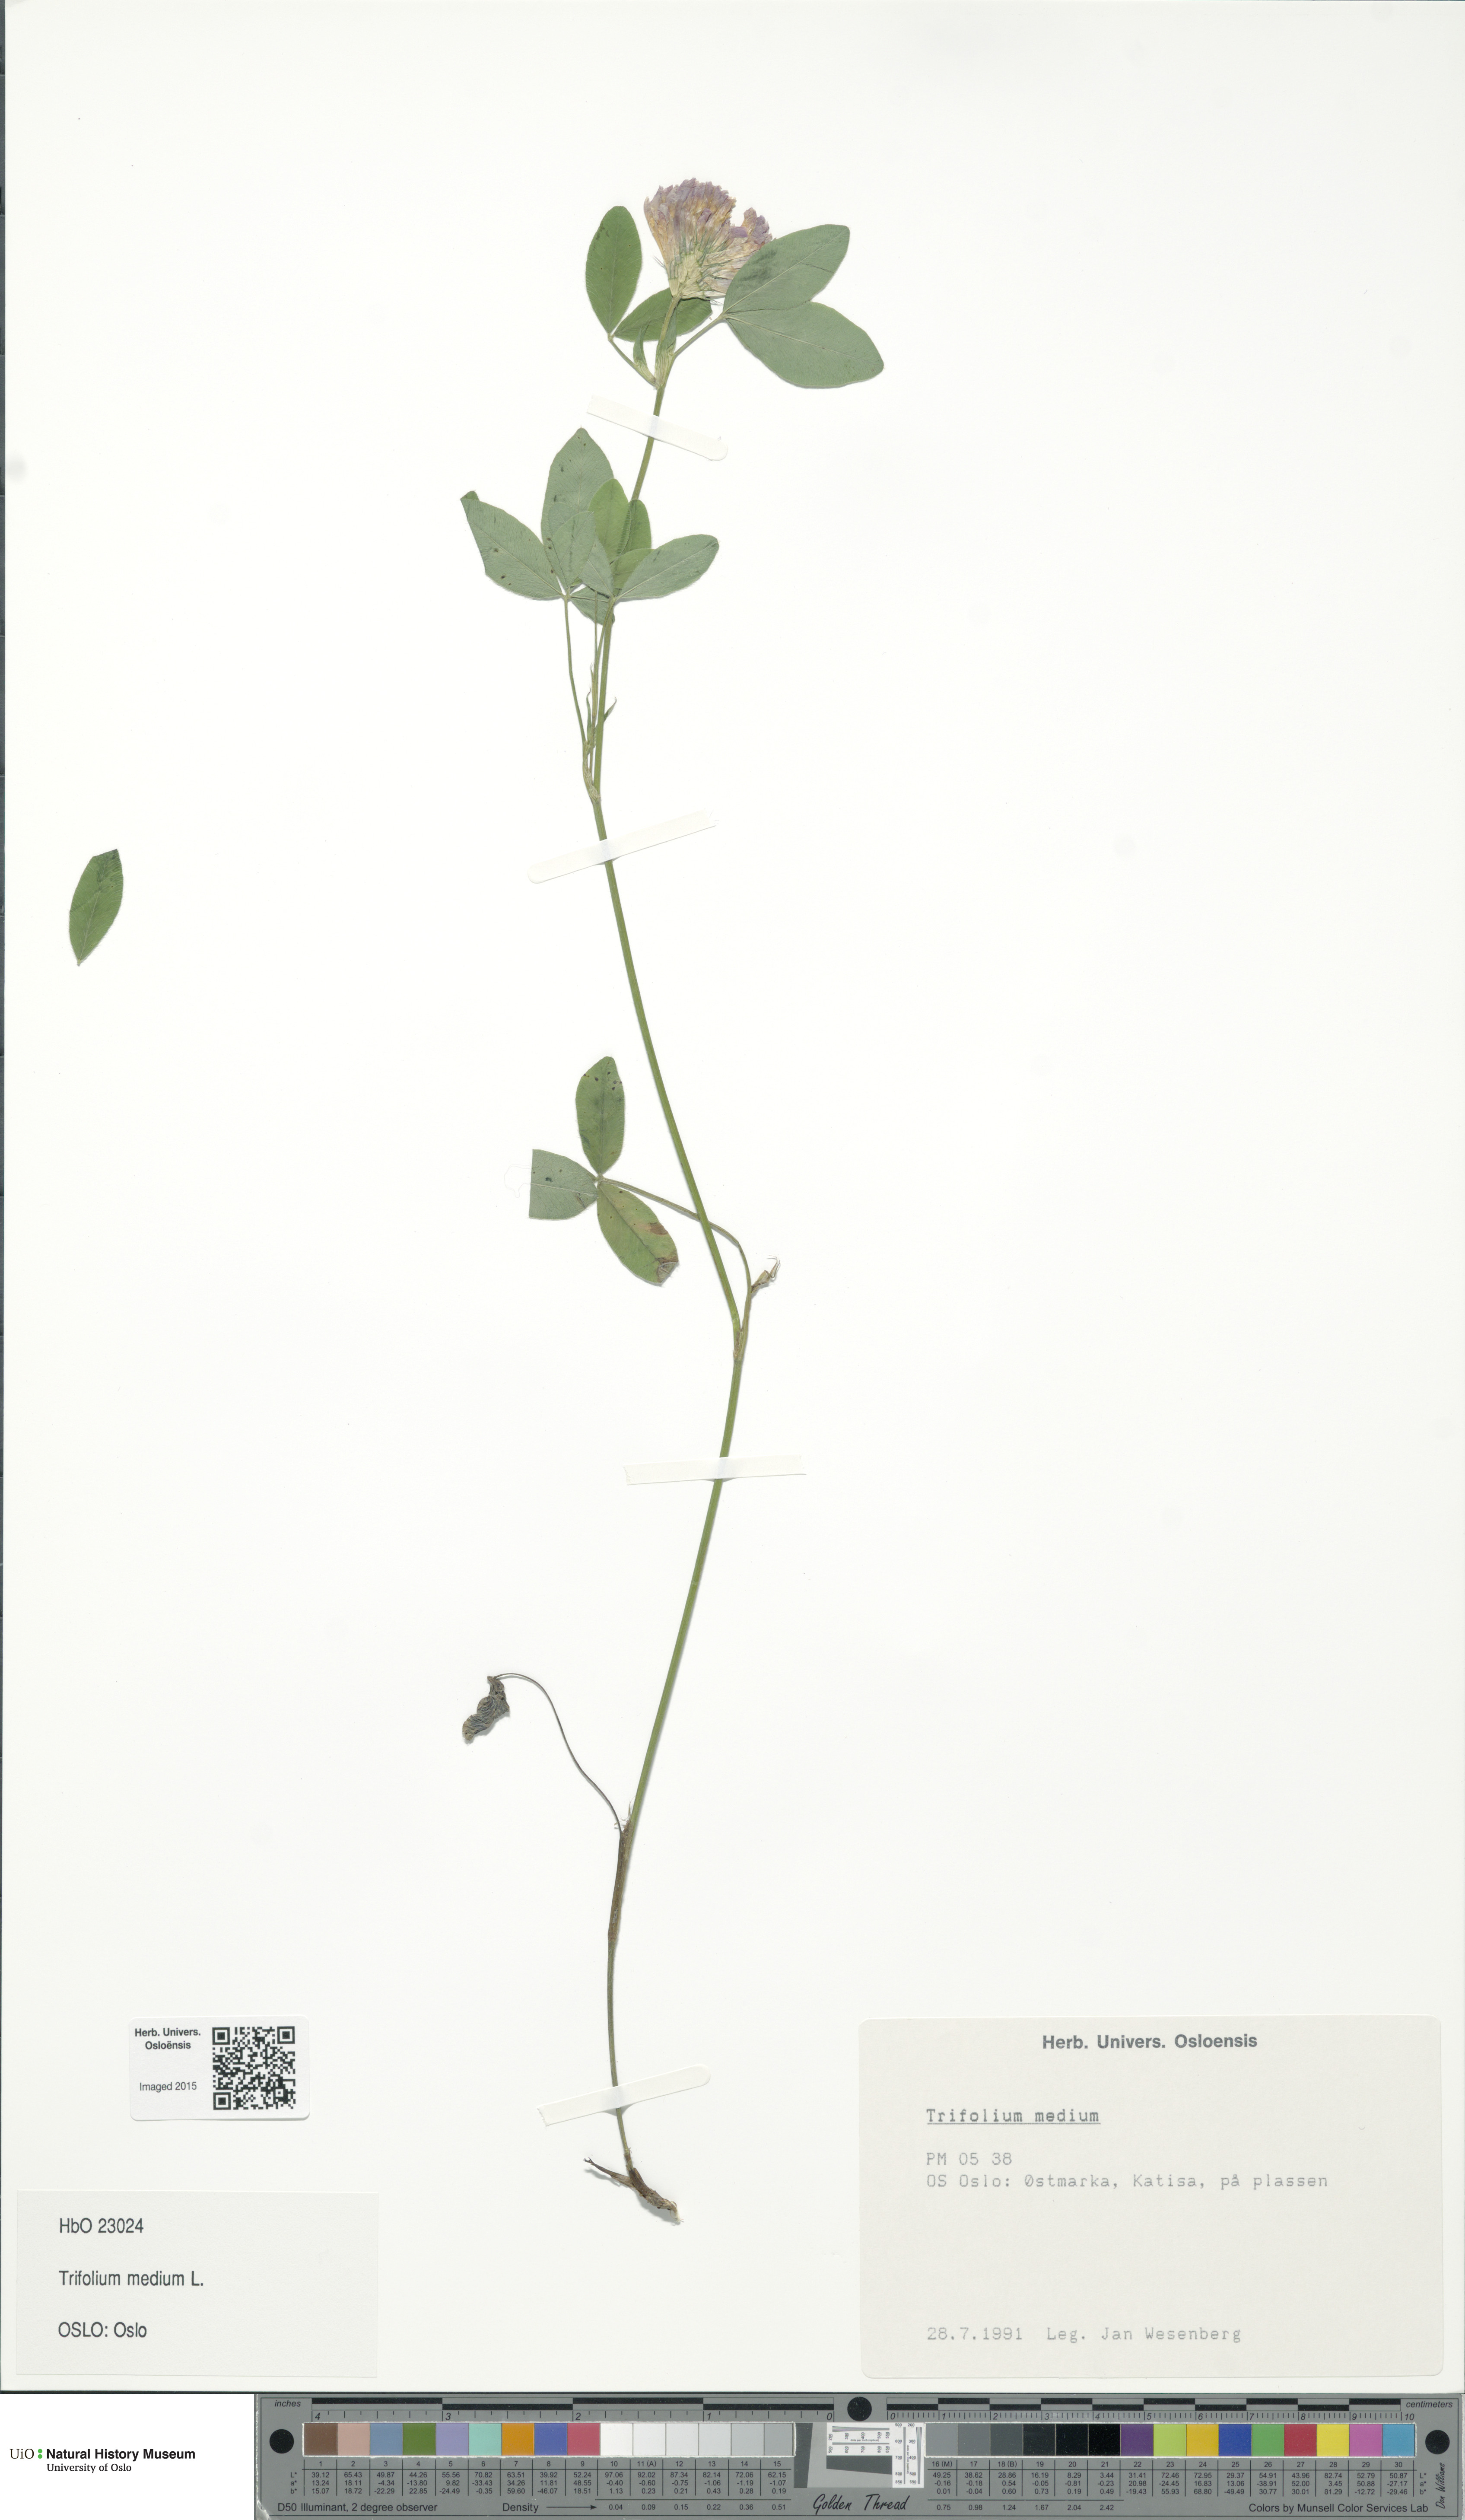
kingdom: Plantae
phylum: Tracheophyta
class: Magnoliopsida
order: Fabales
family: Fabaceae
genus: Trifolium
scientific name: Trifolium medium
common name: Zigzag clover
